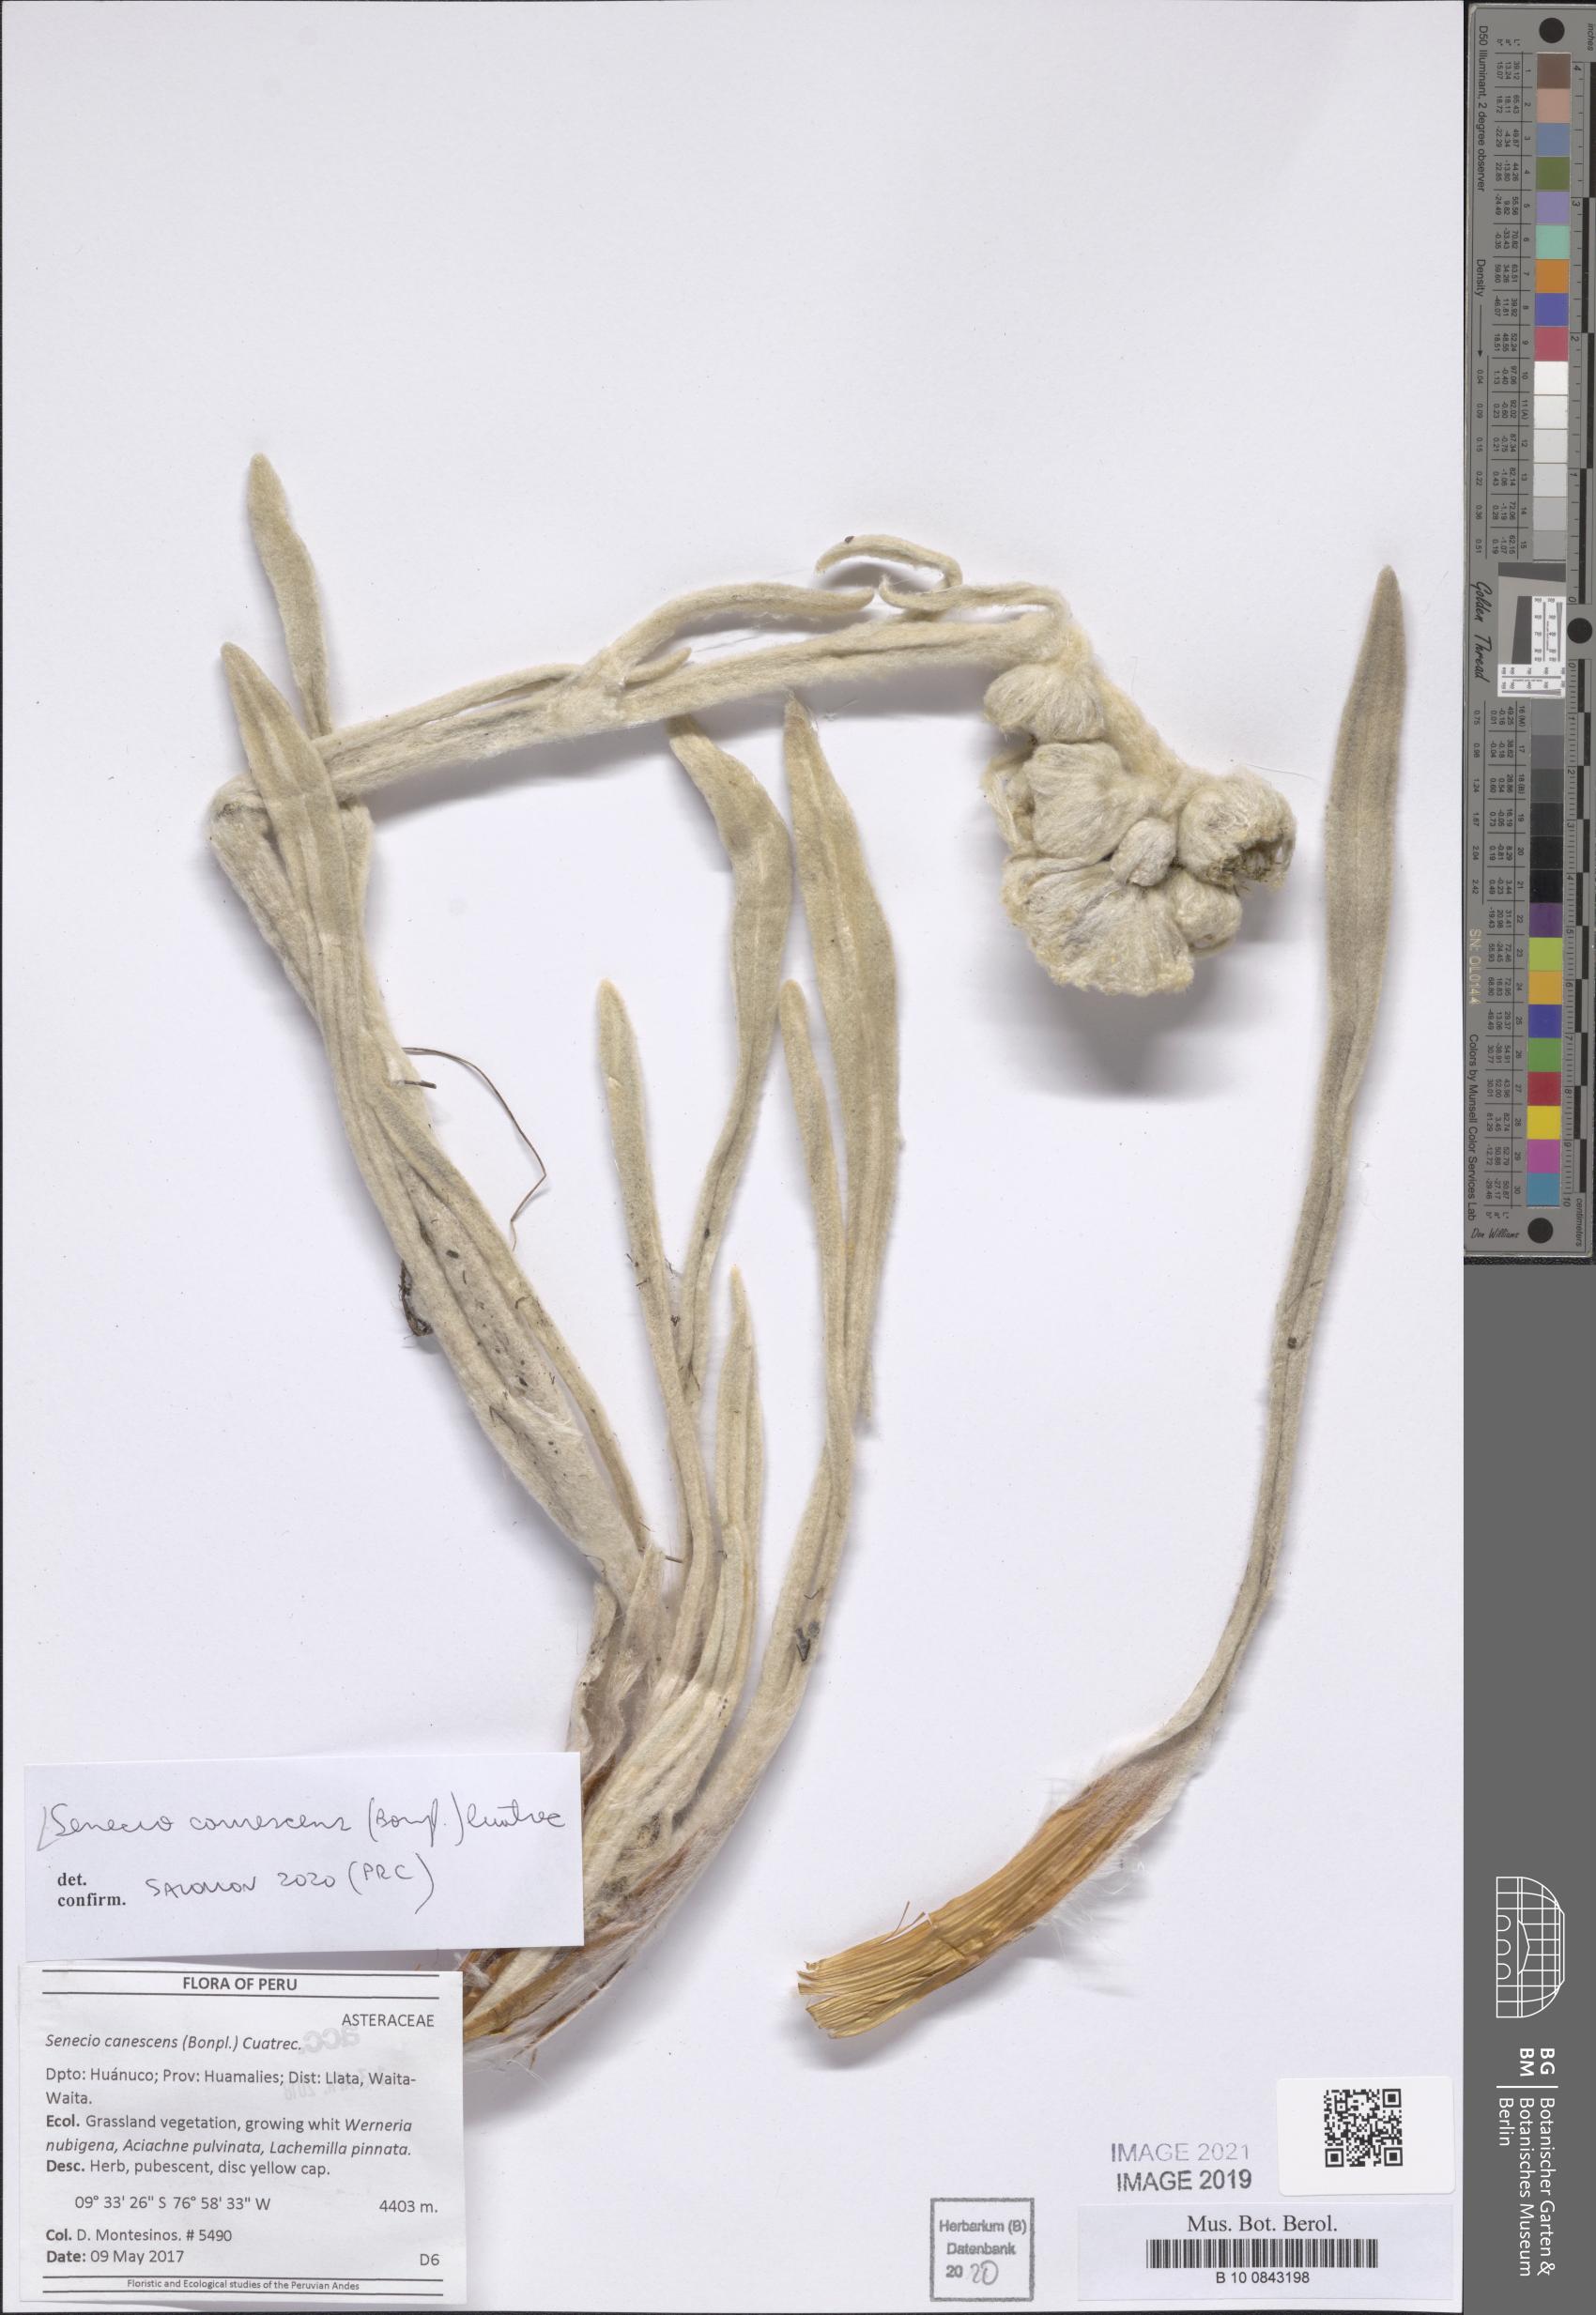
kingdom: Plantae
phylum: Tracheophyta
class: Magnoliopsida
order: Asterales
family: Asteraceae
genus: Culcitium
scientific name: Culcitium canescens
